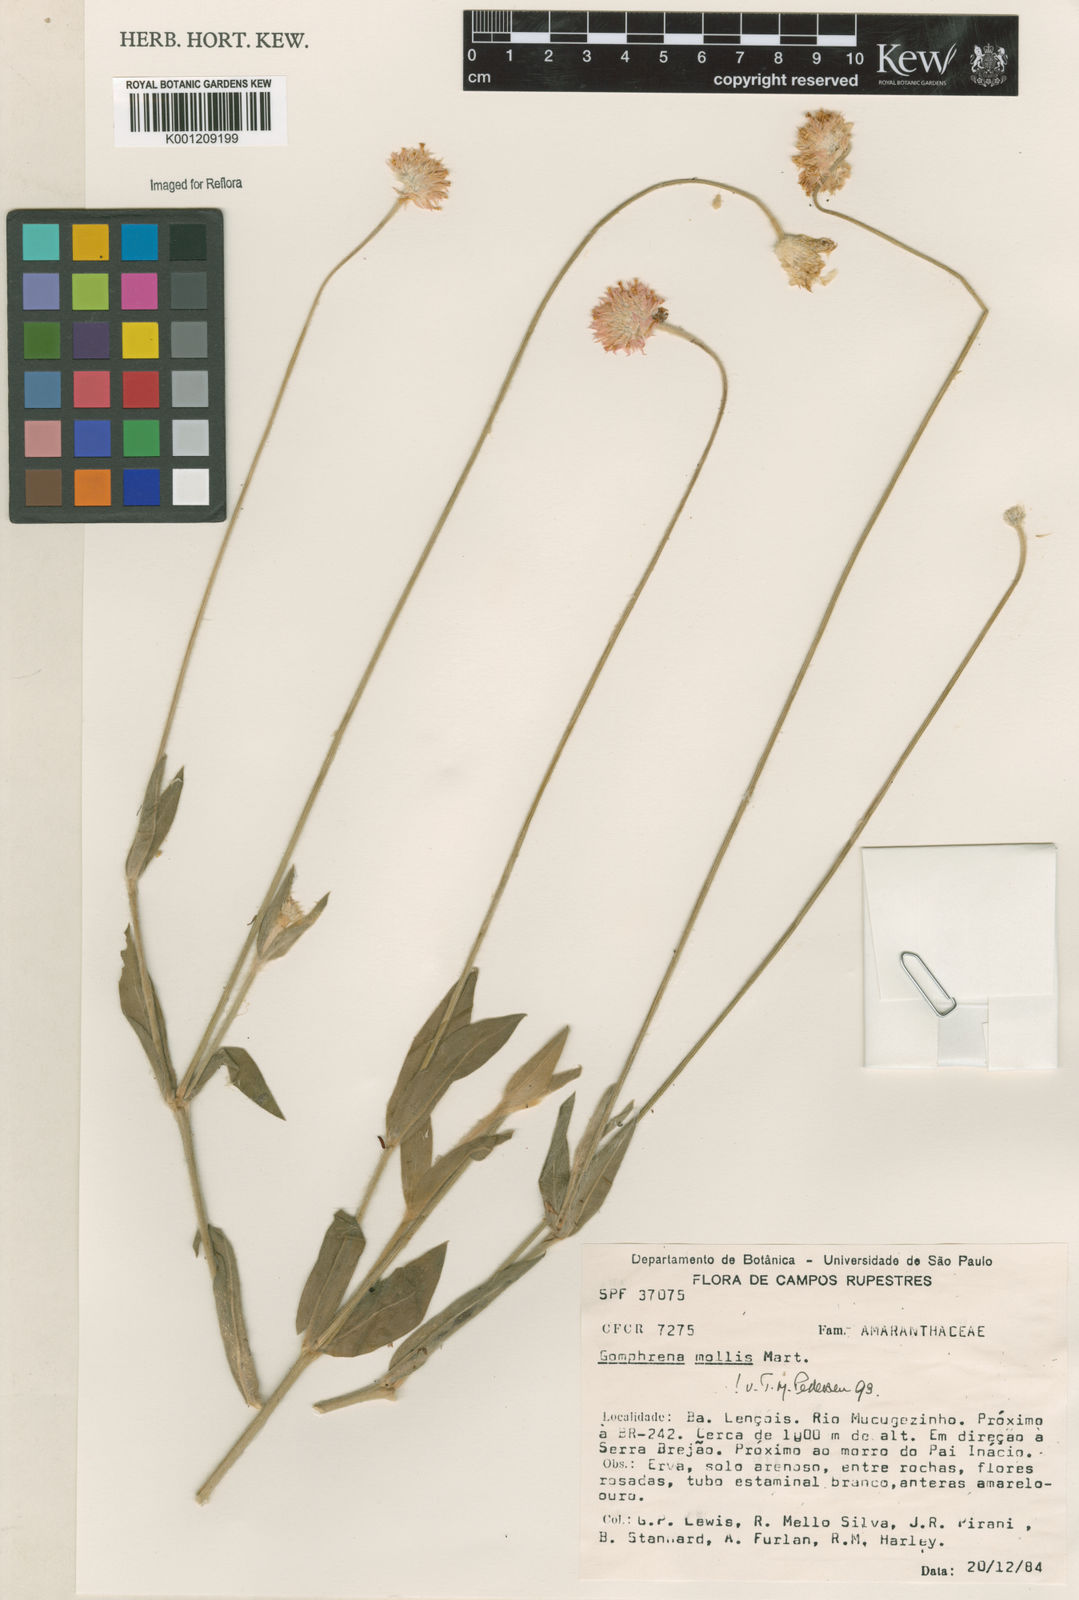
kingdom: Plantae
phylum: Tracheophyta
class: Magnoliopsida
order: Caryophyllales
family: Amaranthaceae
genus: Gomphrena
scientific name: Gomphrena mollis
